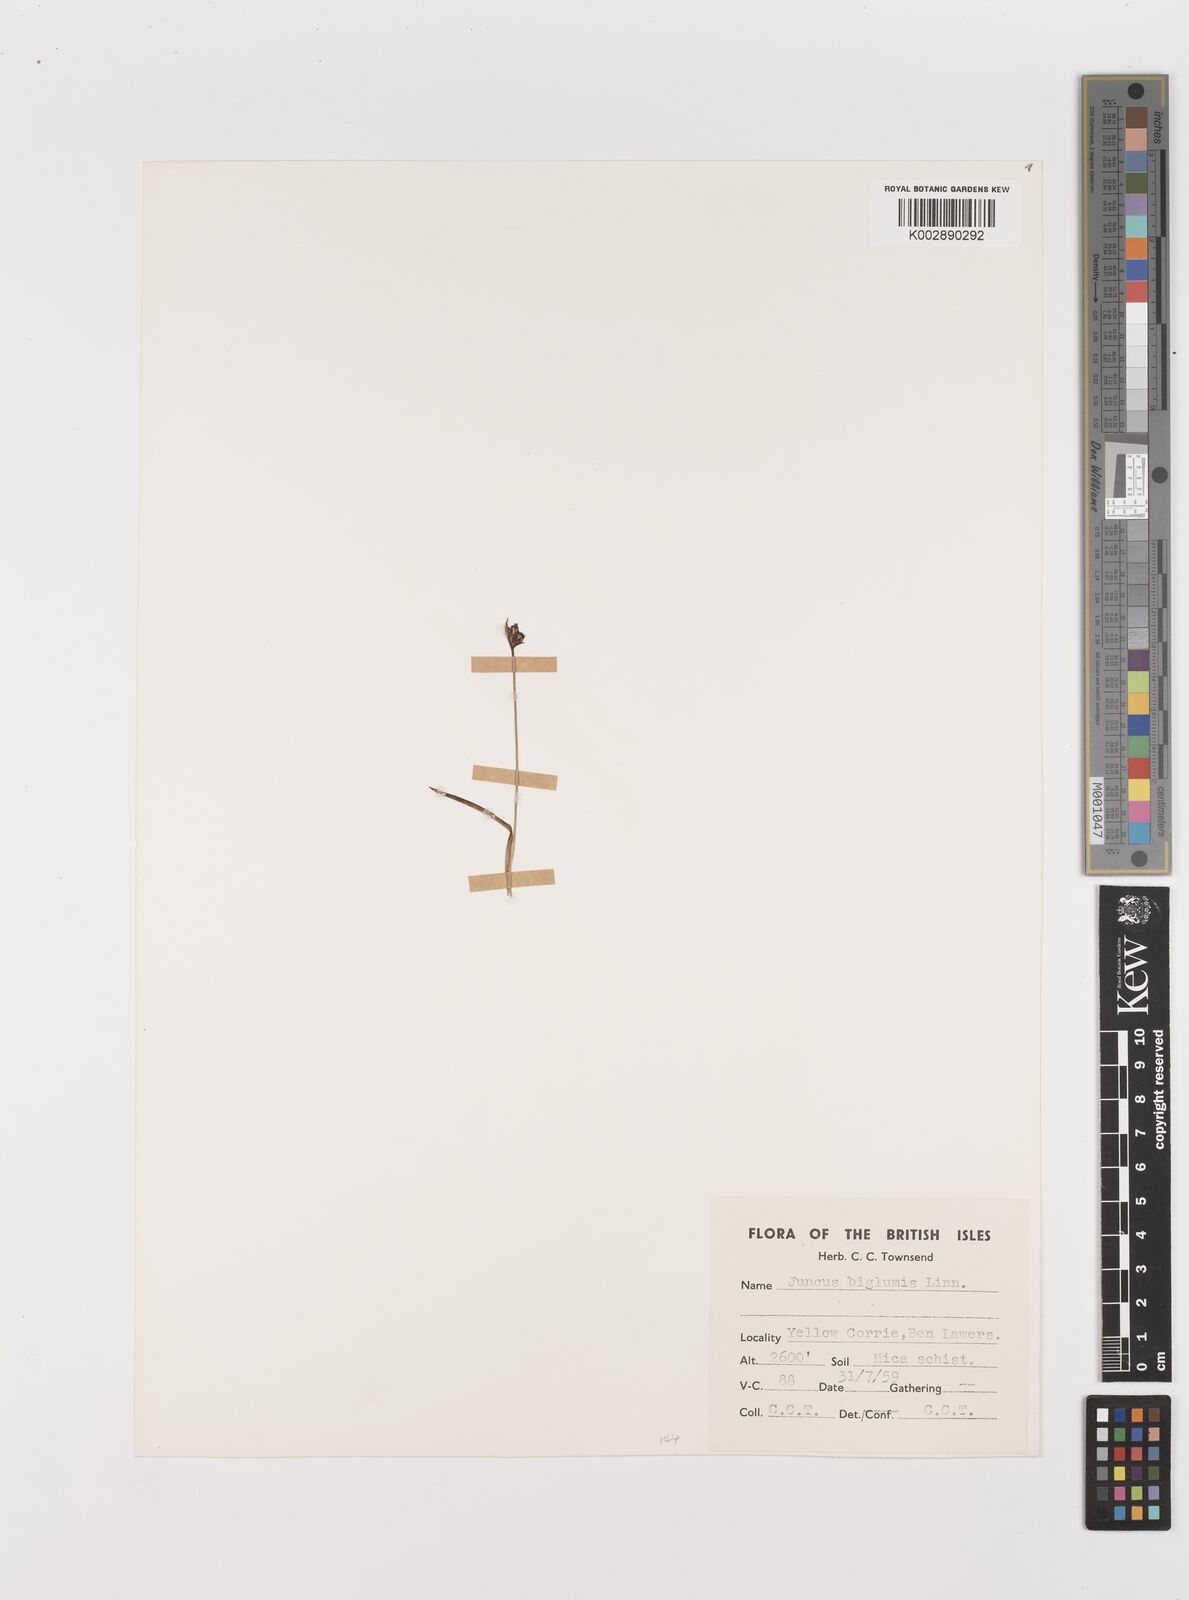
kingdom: Plantae
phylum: Tracheophyta
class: Liliopsida
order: Poales
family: Juncaceae
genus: Juncus
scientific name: Juncus biglumis
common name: Two-flowered rush
